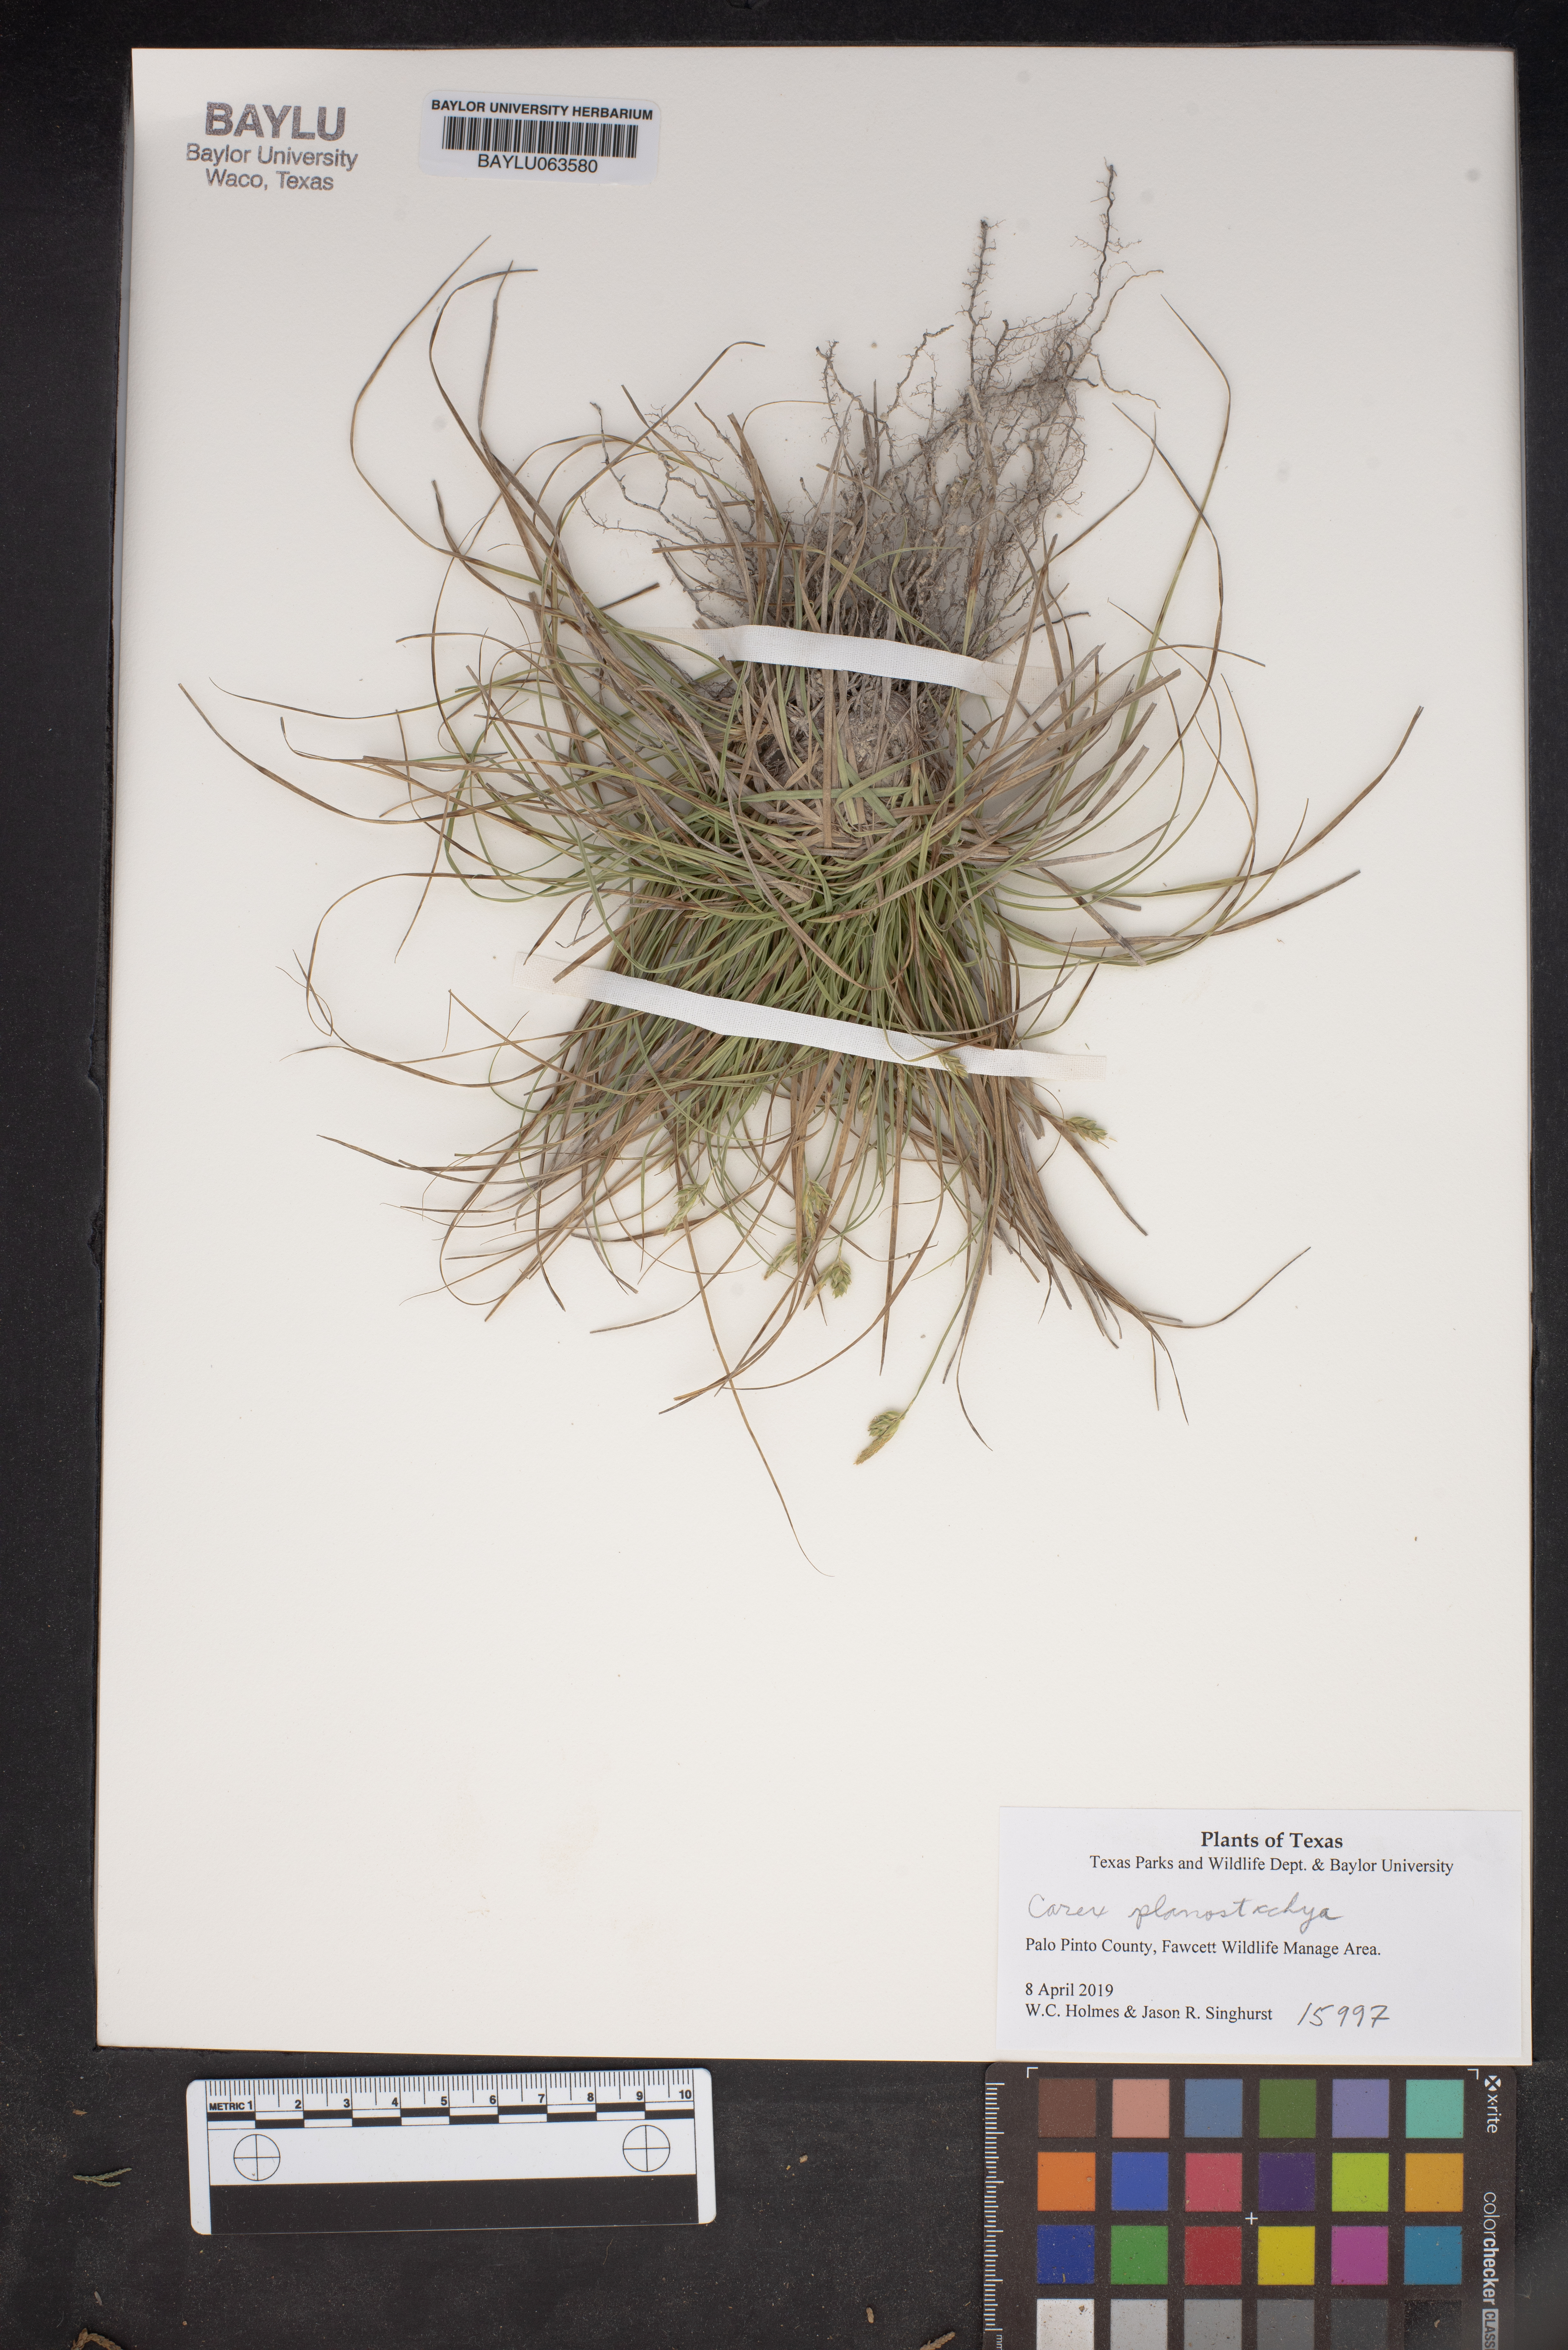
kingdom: Plantae
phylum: Tracheophyta
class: Liliopsida
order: Poales
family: Cyperaceae
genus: Carex
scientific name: Carex planostachys
